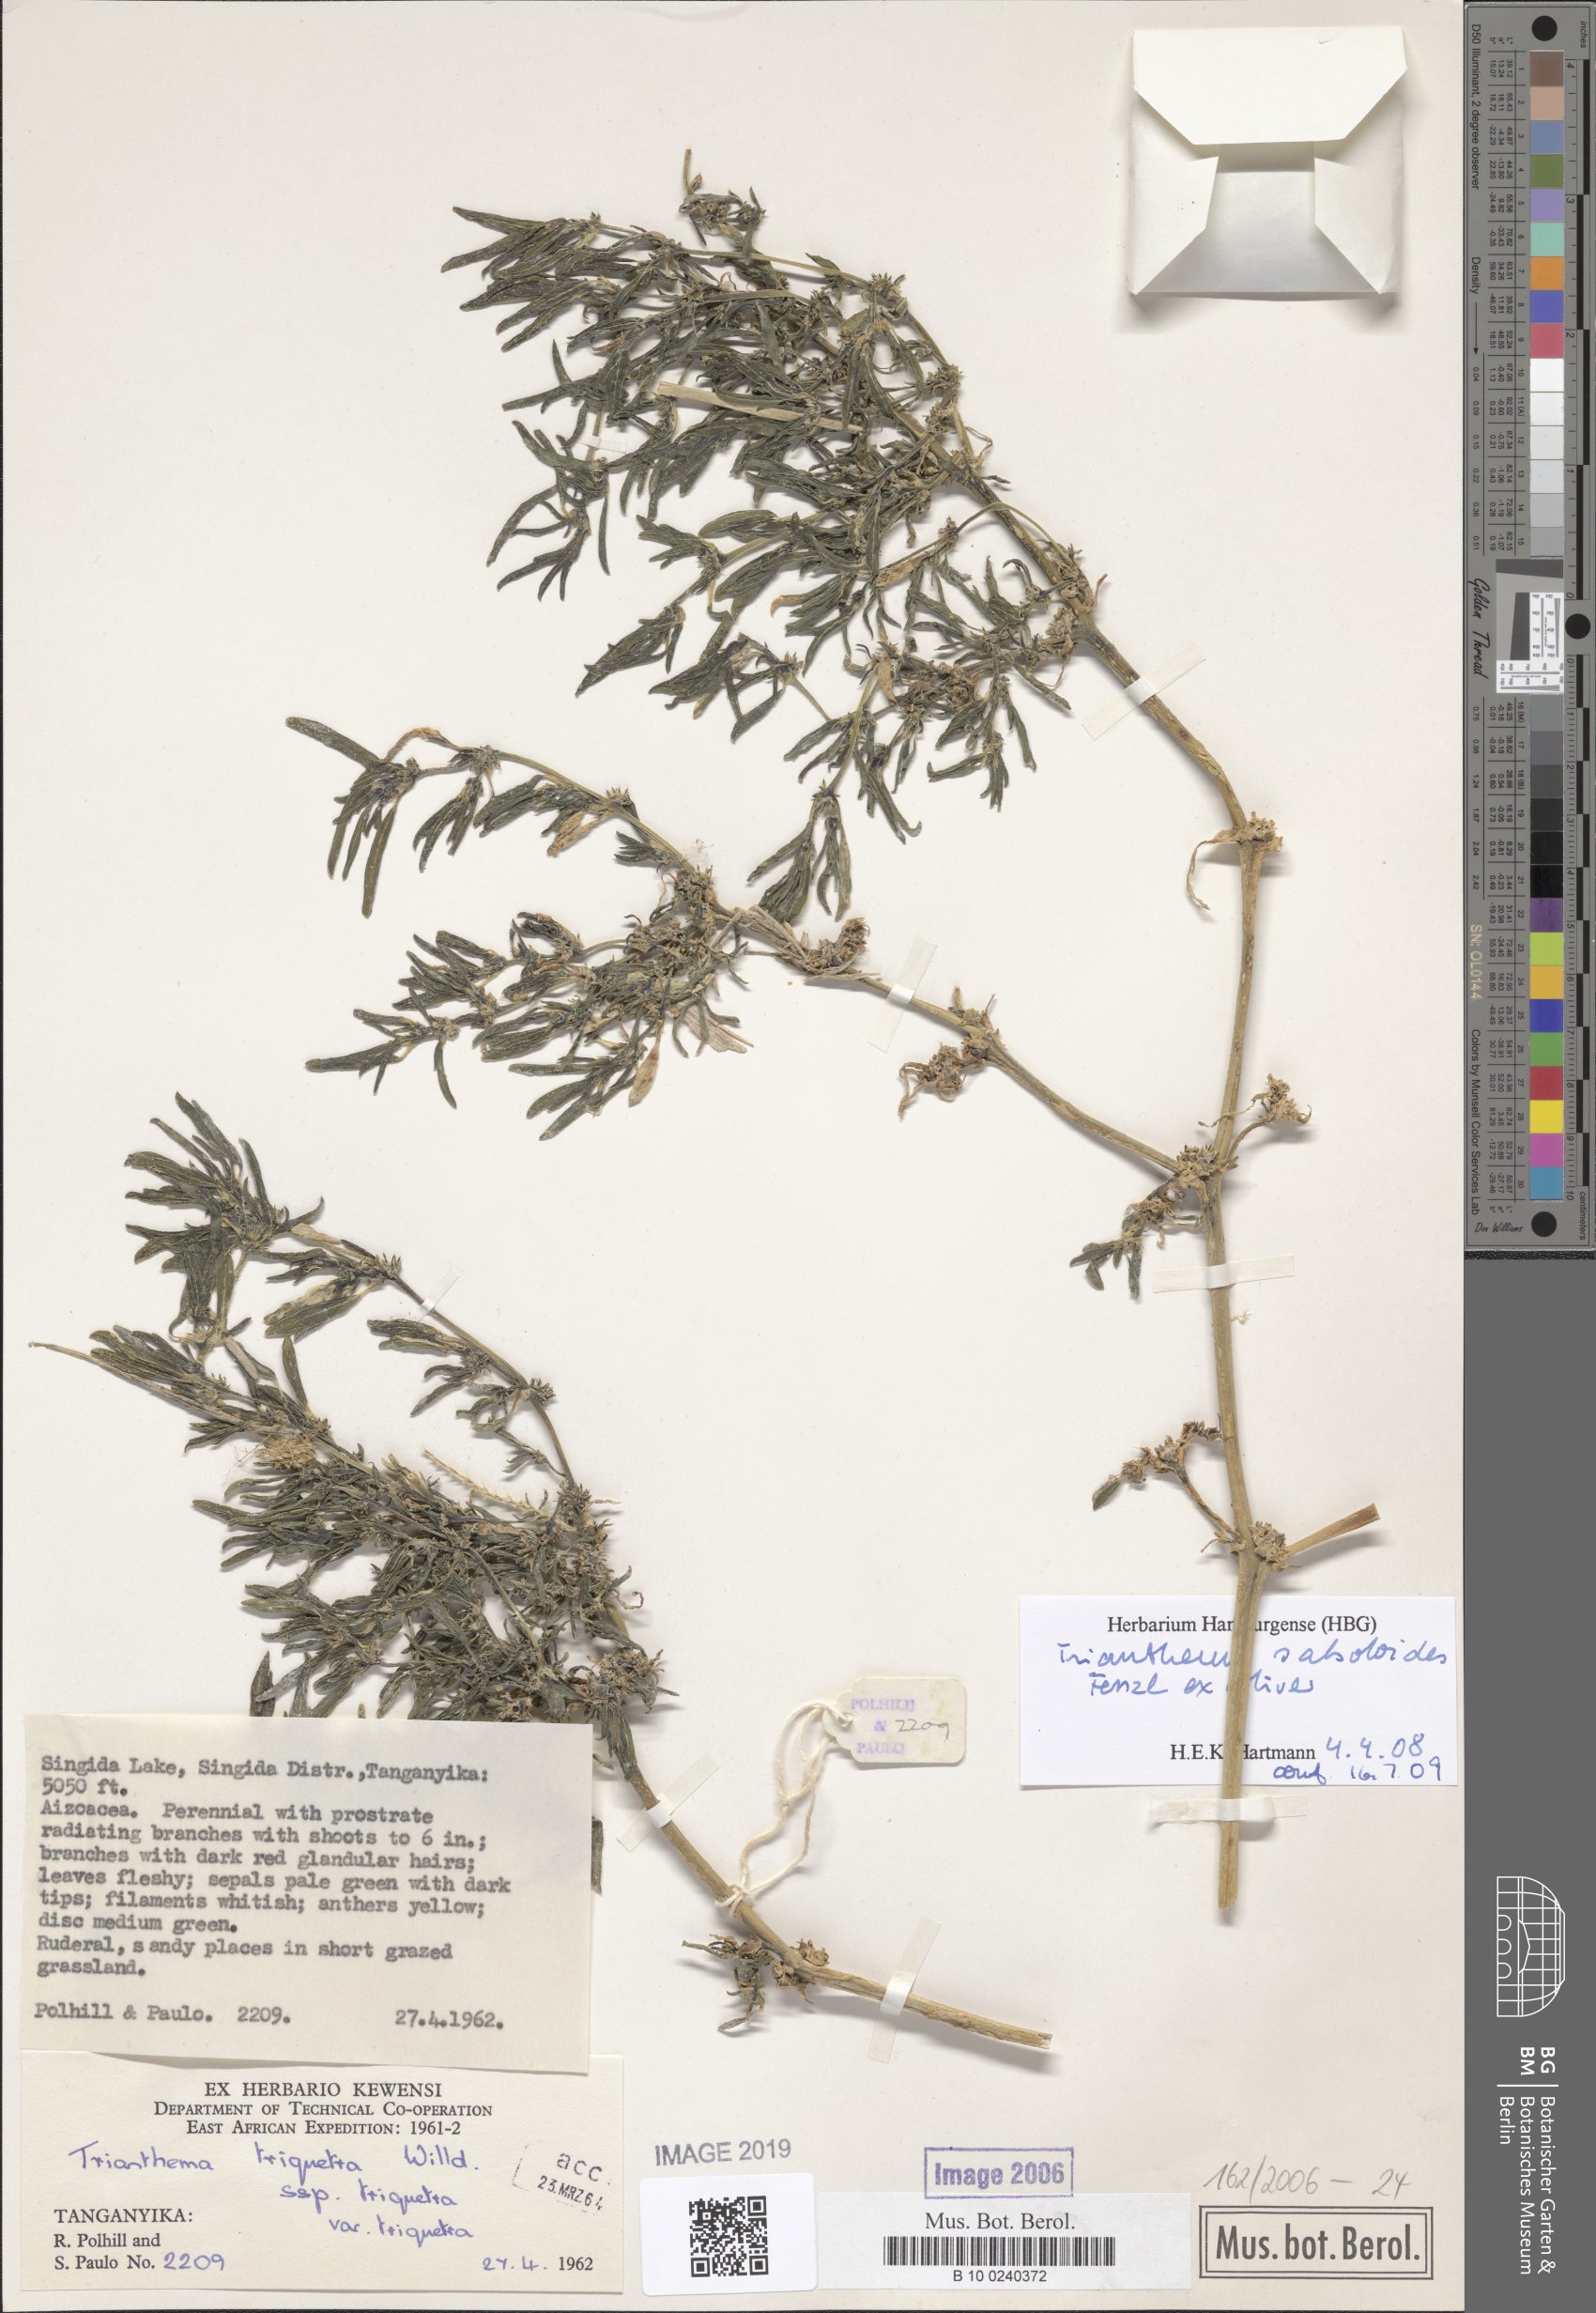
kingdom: Plantae
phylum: Tracheophyta
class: Magnoliopsida
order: Caryophyllales
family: Aizoaceae
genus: Trianthema
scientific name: Trianthema triquetrum
